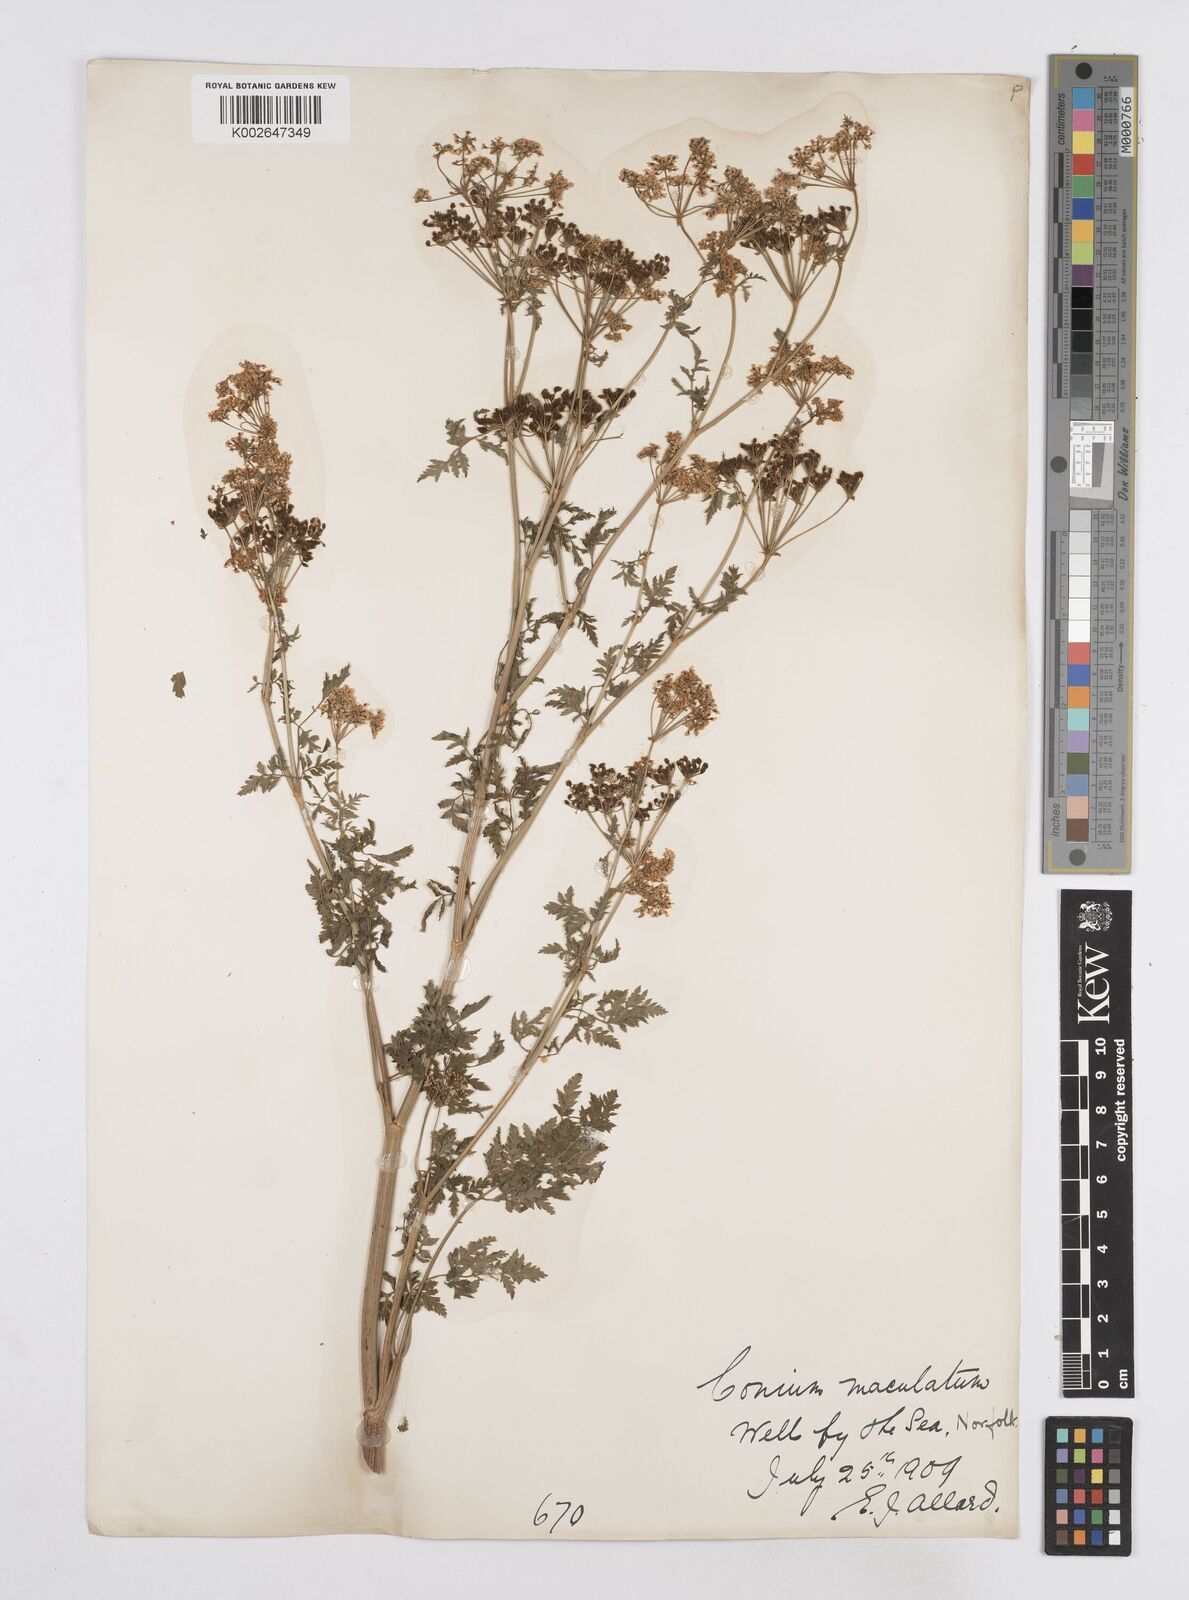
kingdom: Plantae
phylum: Tracheophyta
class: Magnoliopsida
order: Apiales
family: Apiaceae
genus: Conium
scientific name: Conium maculatum
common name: Hemlock
